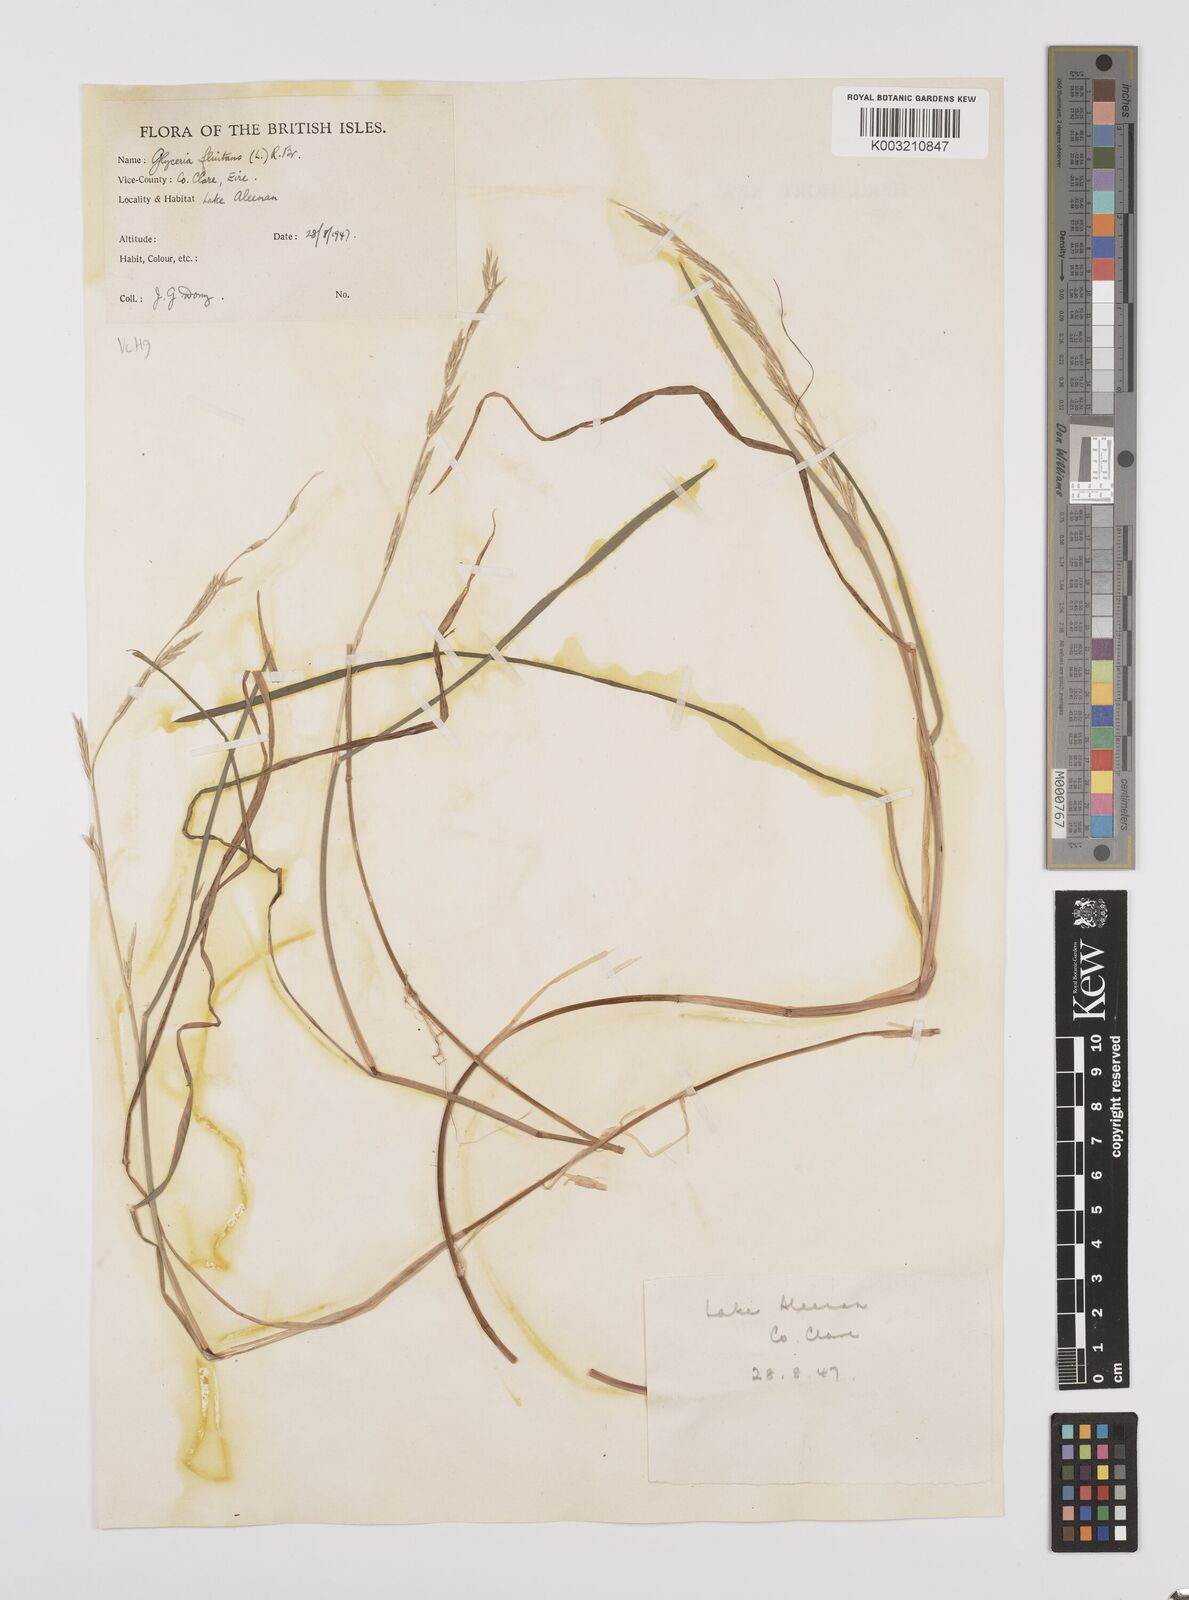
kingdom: Plantae
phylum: Tracheophyta
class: Liliopsida
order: Poales
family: Poaceae
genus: Glyceria
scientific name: Glyceria fluitans
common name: Floating sweet-grass
